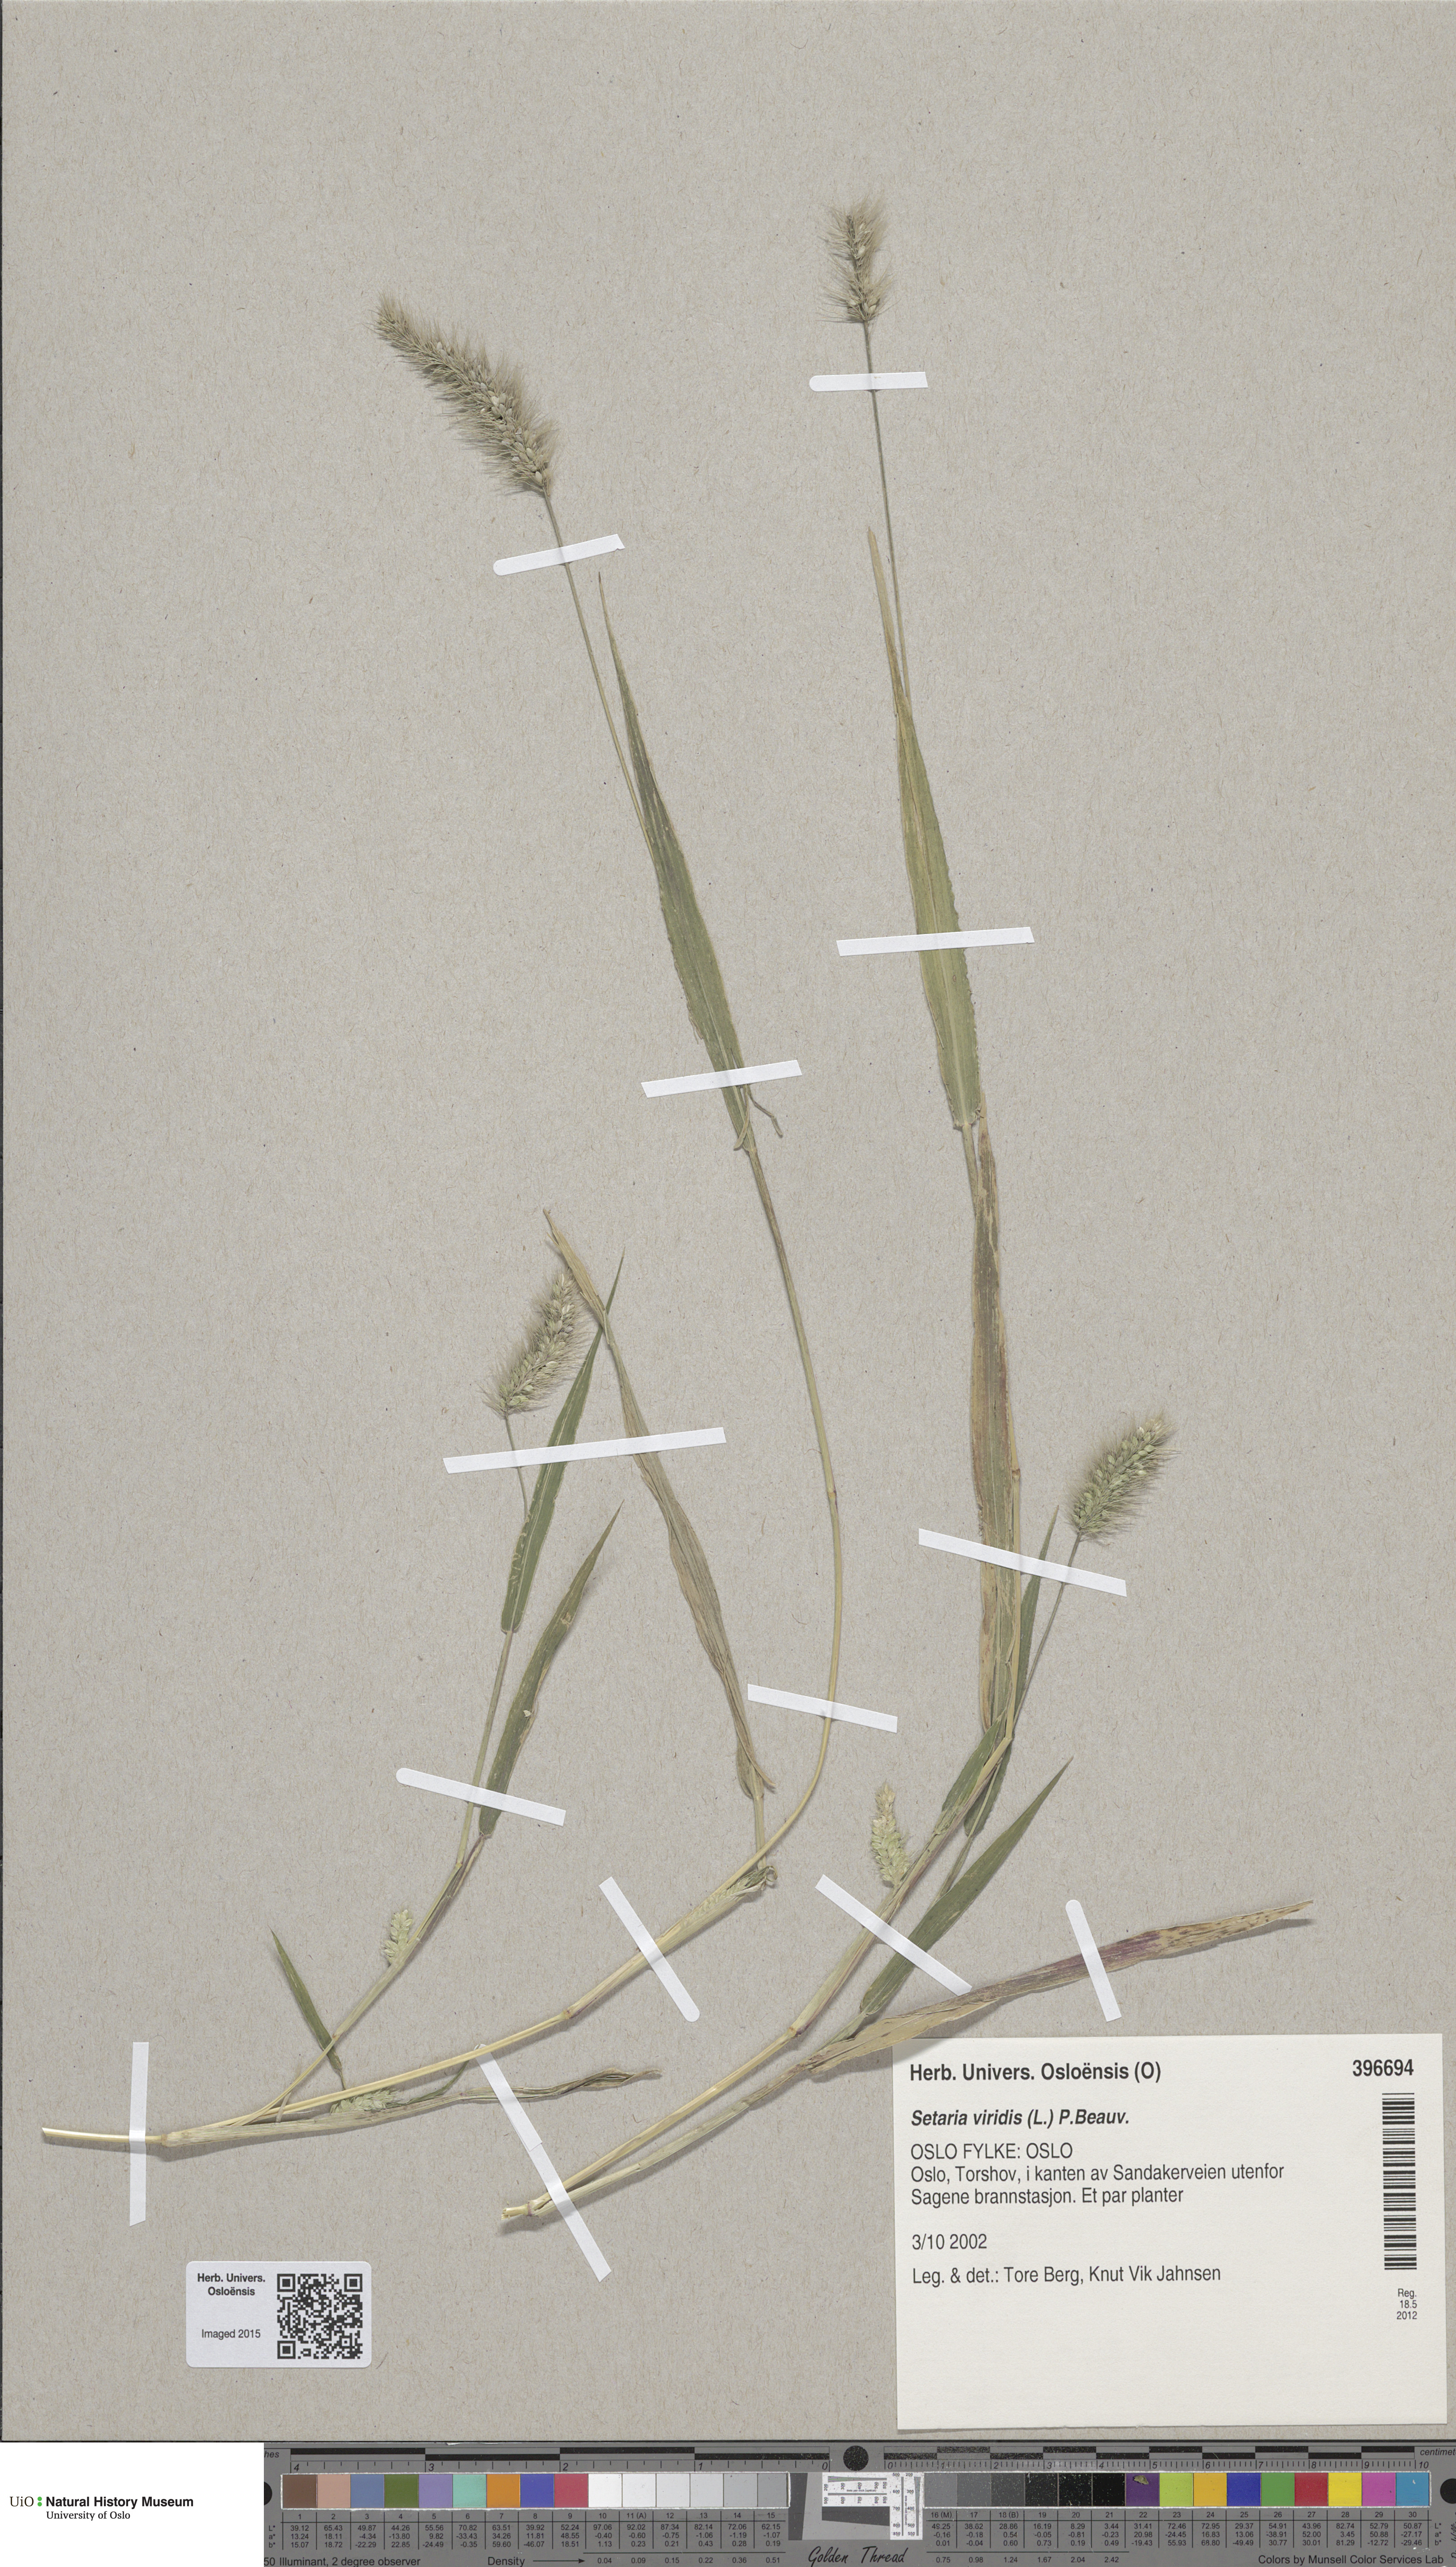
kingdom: Plantae
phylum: Tracheophyta
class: Liliopsida
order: Poales
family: Poaceae
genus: Setaria
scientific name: Setaria viridis
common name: Green bristlegrass
